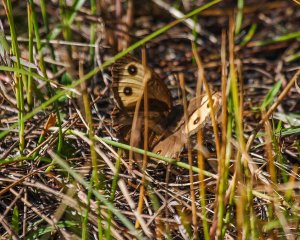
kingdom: Animalia
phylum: Arthropoda
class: Insecta
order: Lepidoptera
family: Nymphalidae
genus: Cercyonis
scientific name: Cercyonis pegala
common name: Common Wood-Nymph
